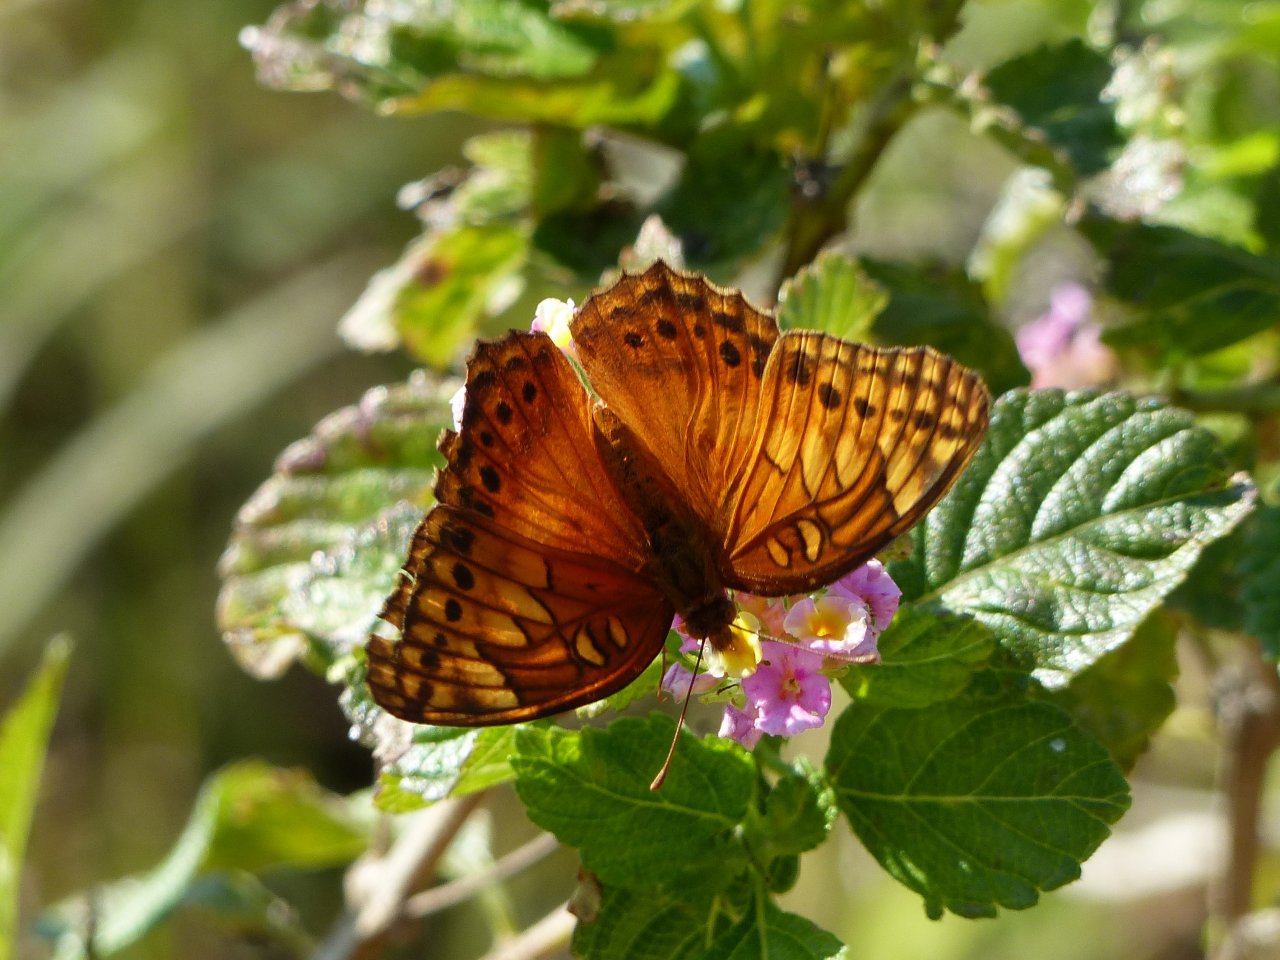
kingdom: Animalia
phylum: Arthropoda
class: Insecta
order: Lepidoptera
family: Nymphalidae
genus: Euptoieta
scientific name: Euptoieta hegesia
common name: Mexican Fritillary
